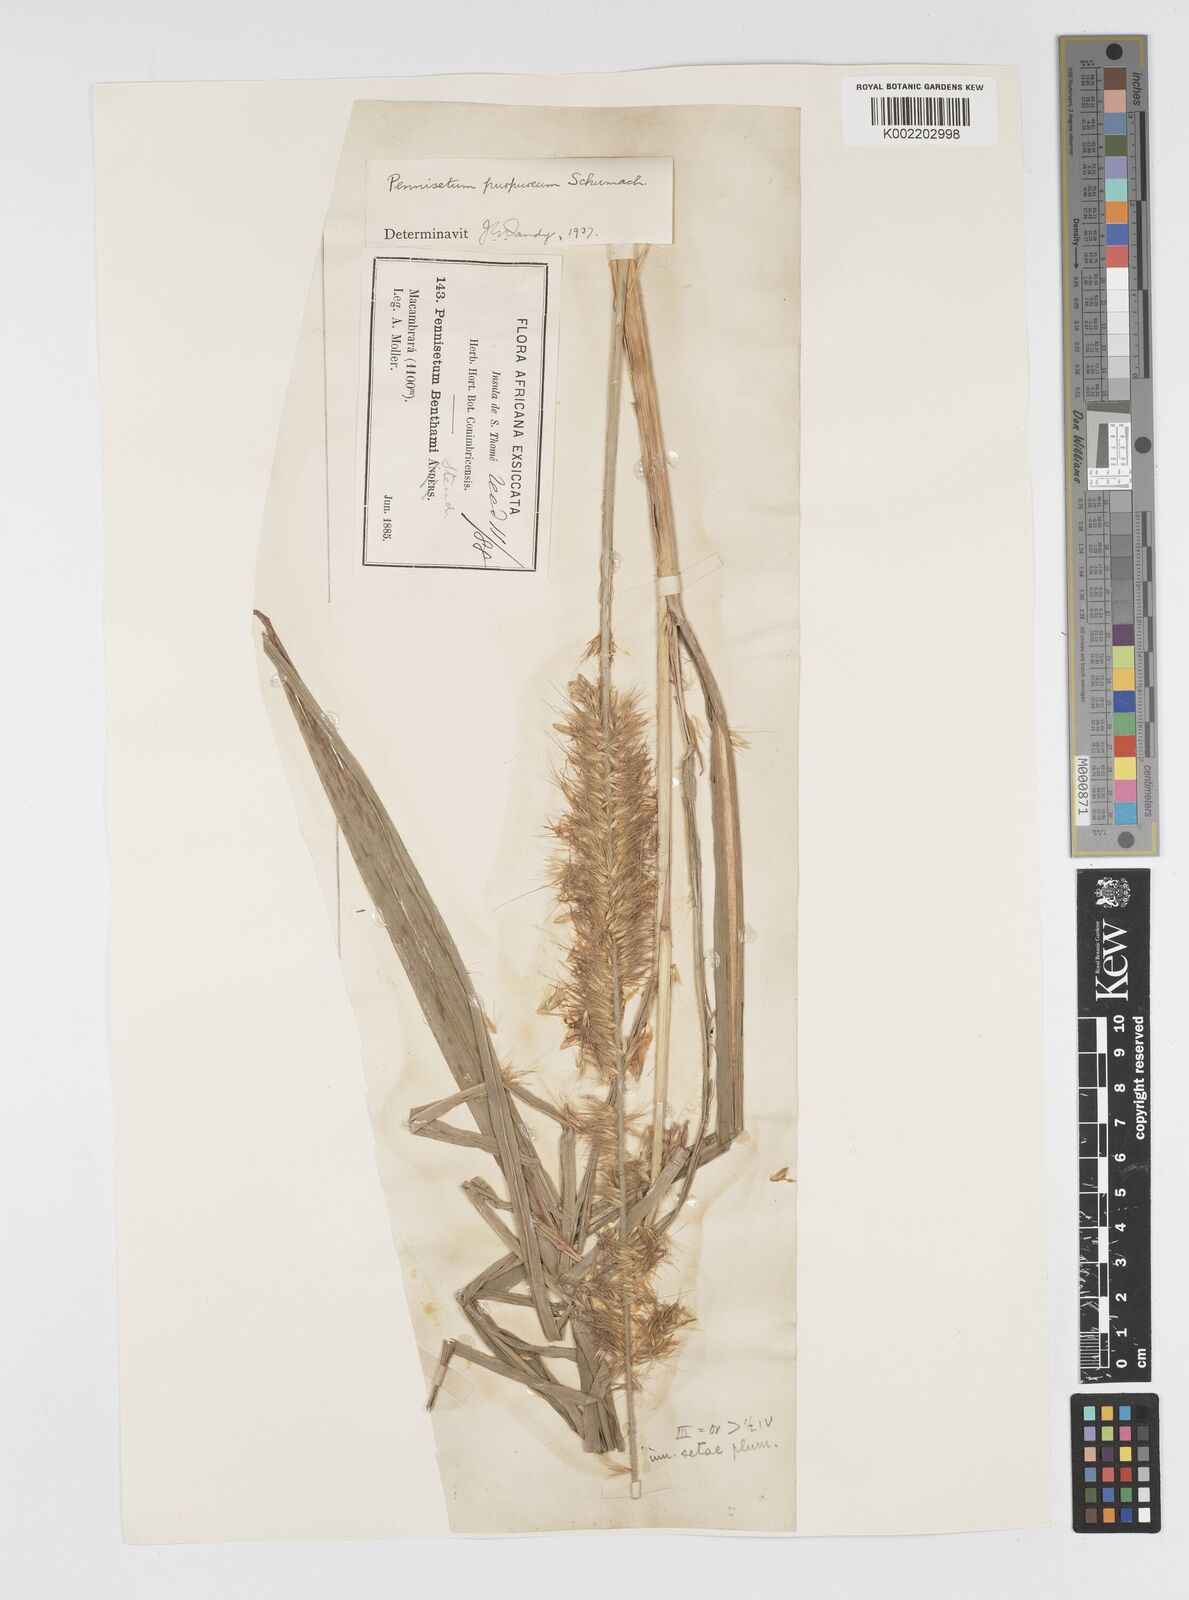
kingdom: Plantae
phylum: Tracheophyta
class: Liliopsida
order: Poales
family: Poaceae
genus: Cenchrus
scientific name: Cenchrus purpureus
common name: Elephant grass
